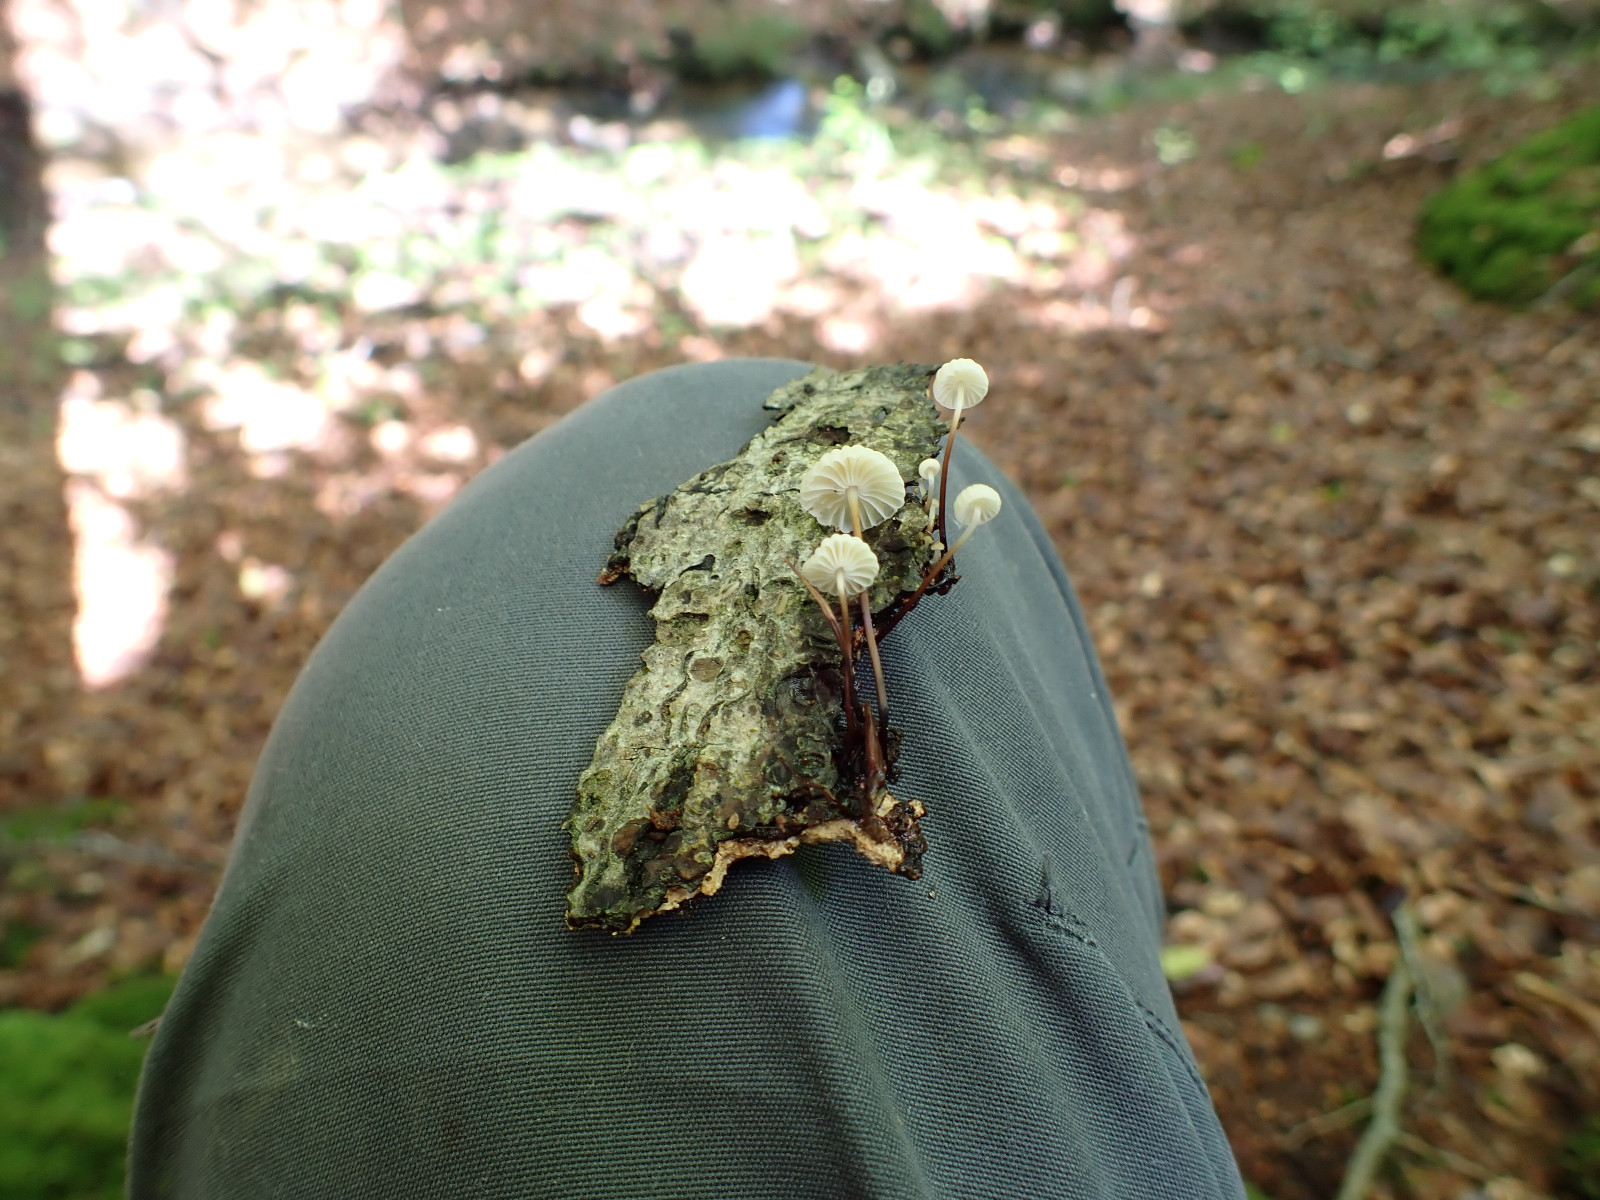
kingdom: Fungi
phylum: Basidiomycota
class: Agaricomycetes
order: Agaricales
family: Marasmiaceae
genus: Marasmius
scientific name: Marasmius rotula
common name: hjul-bruskhat
